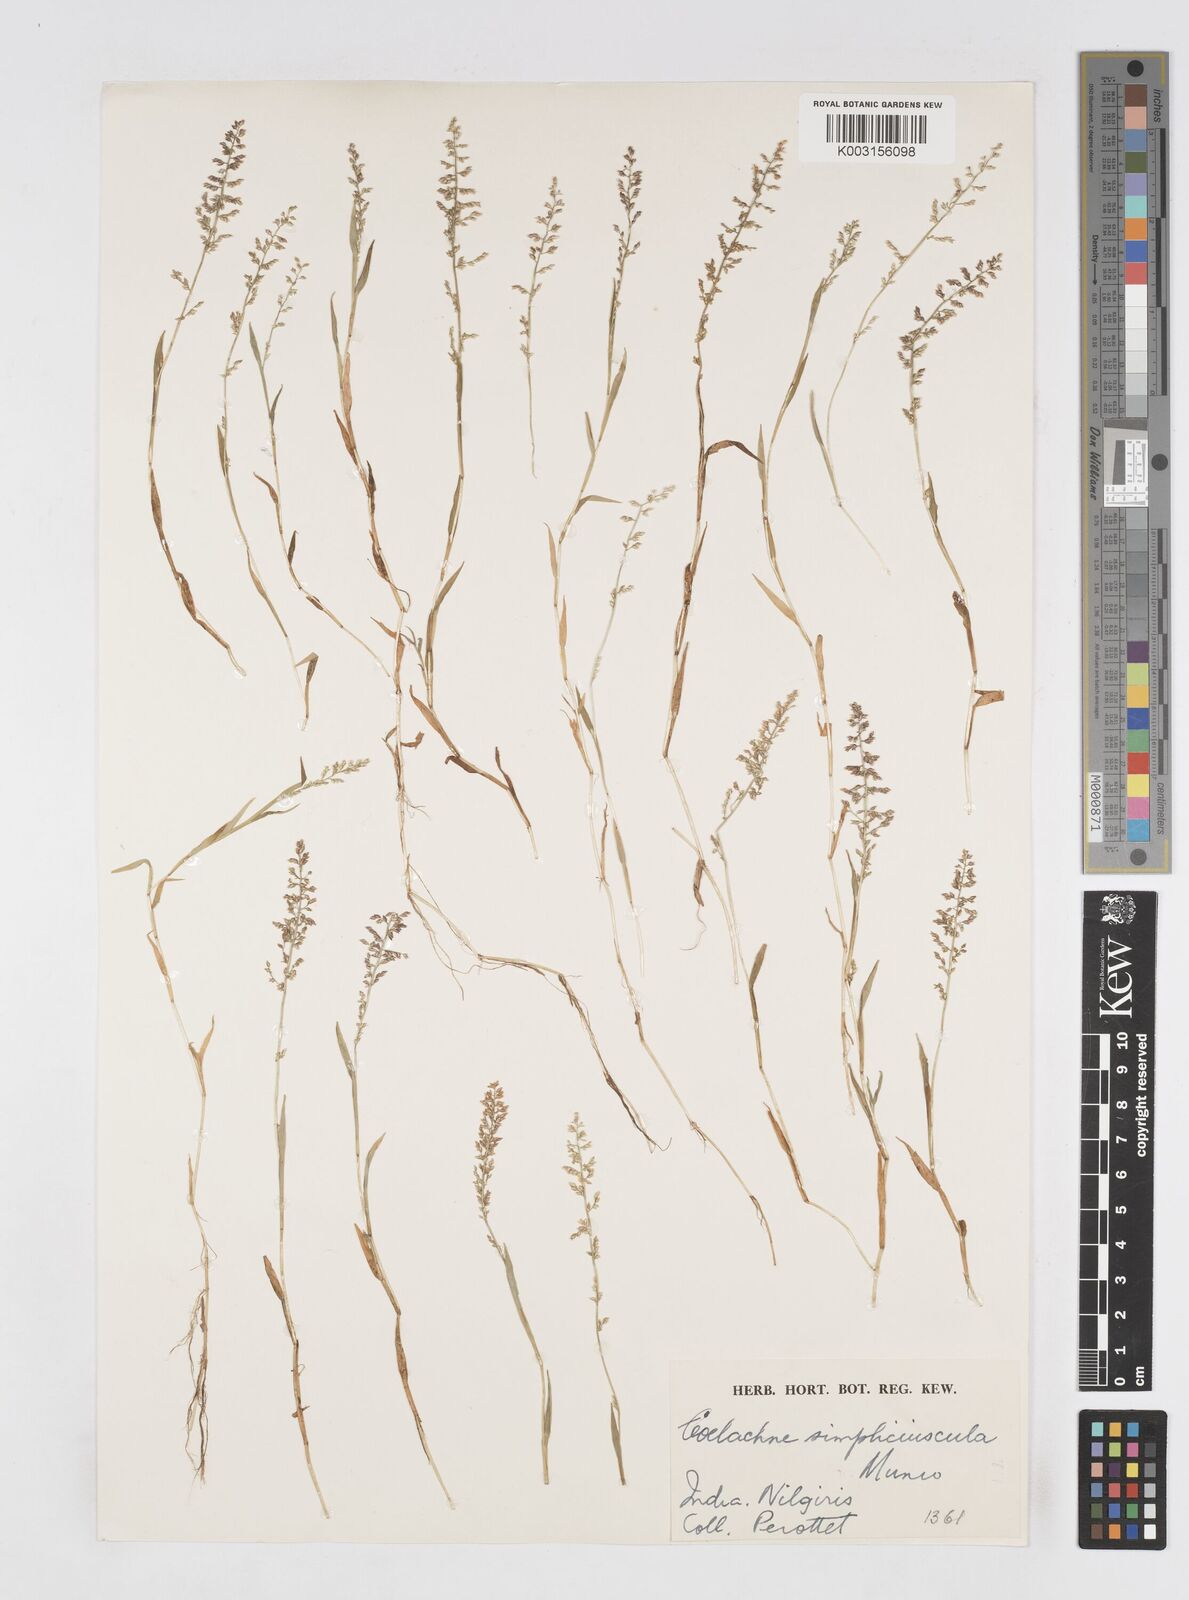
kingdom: Plantae
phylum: Tracheophyta
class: Liliopsida
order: Poales
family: Poaceae
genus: Coelachne
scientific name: Coelachne simpliciuscula
